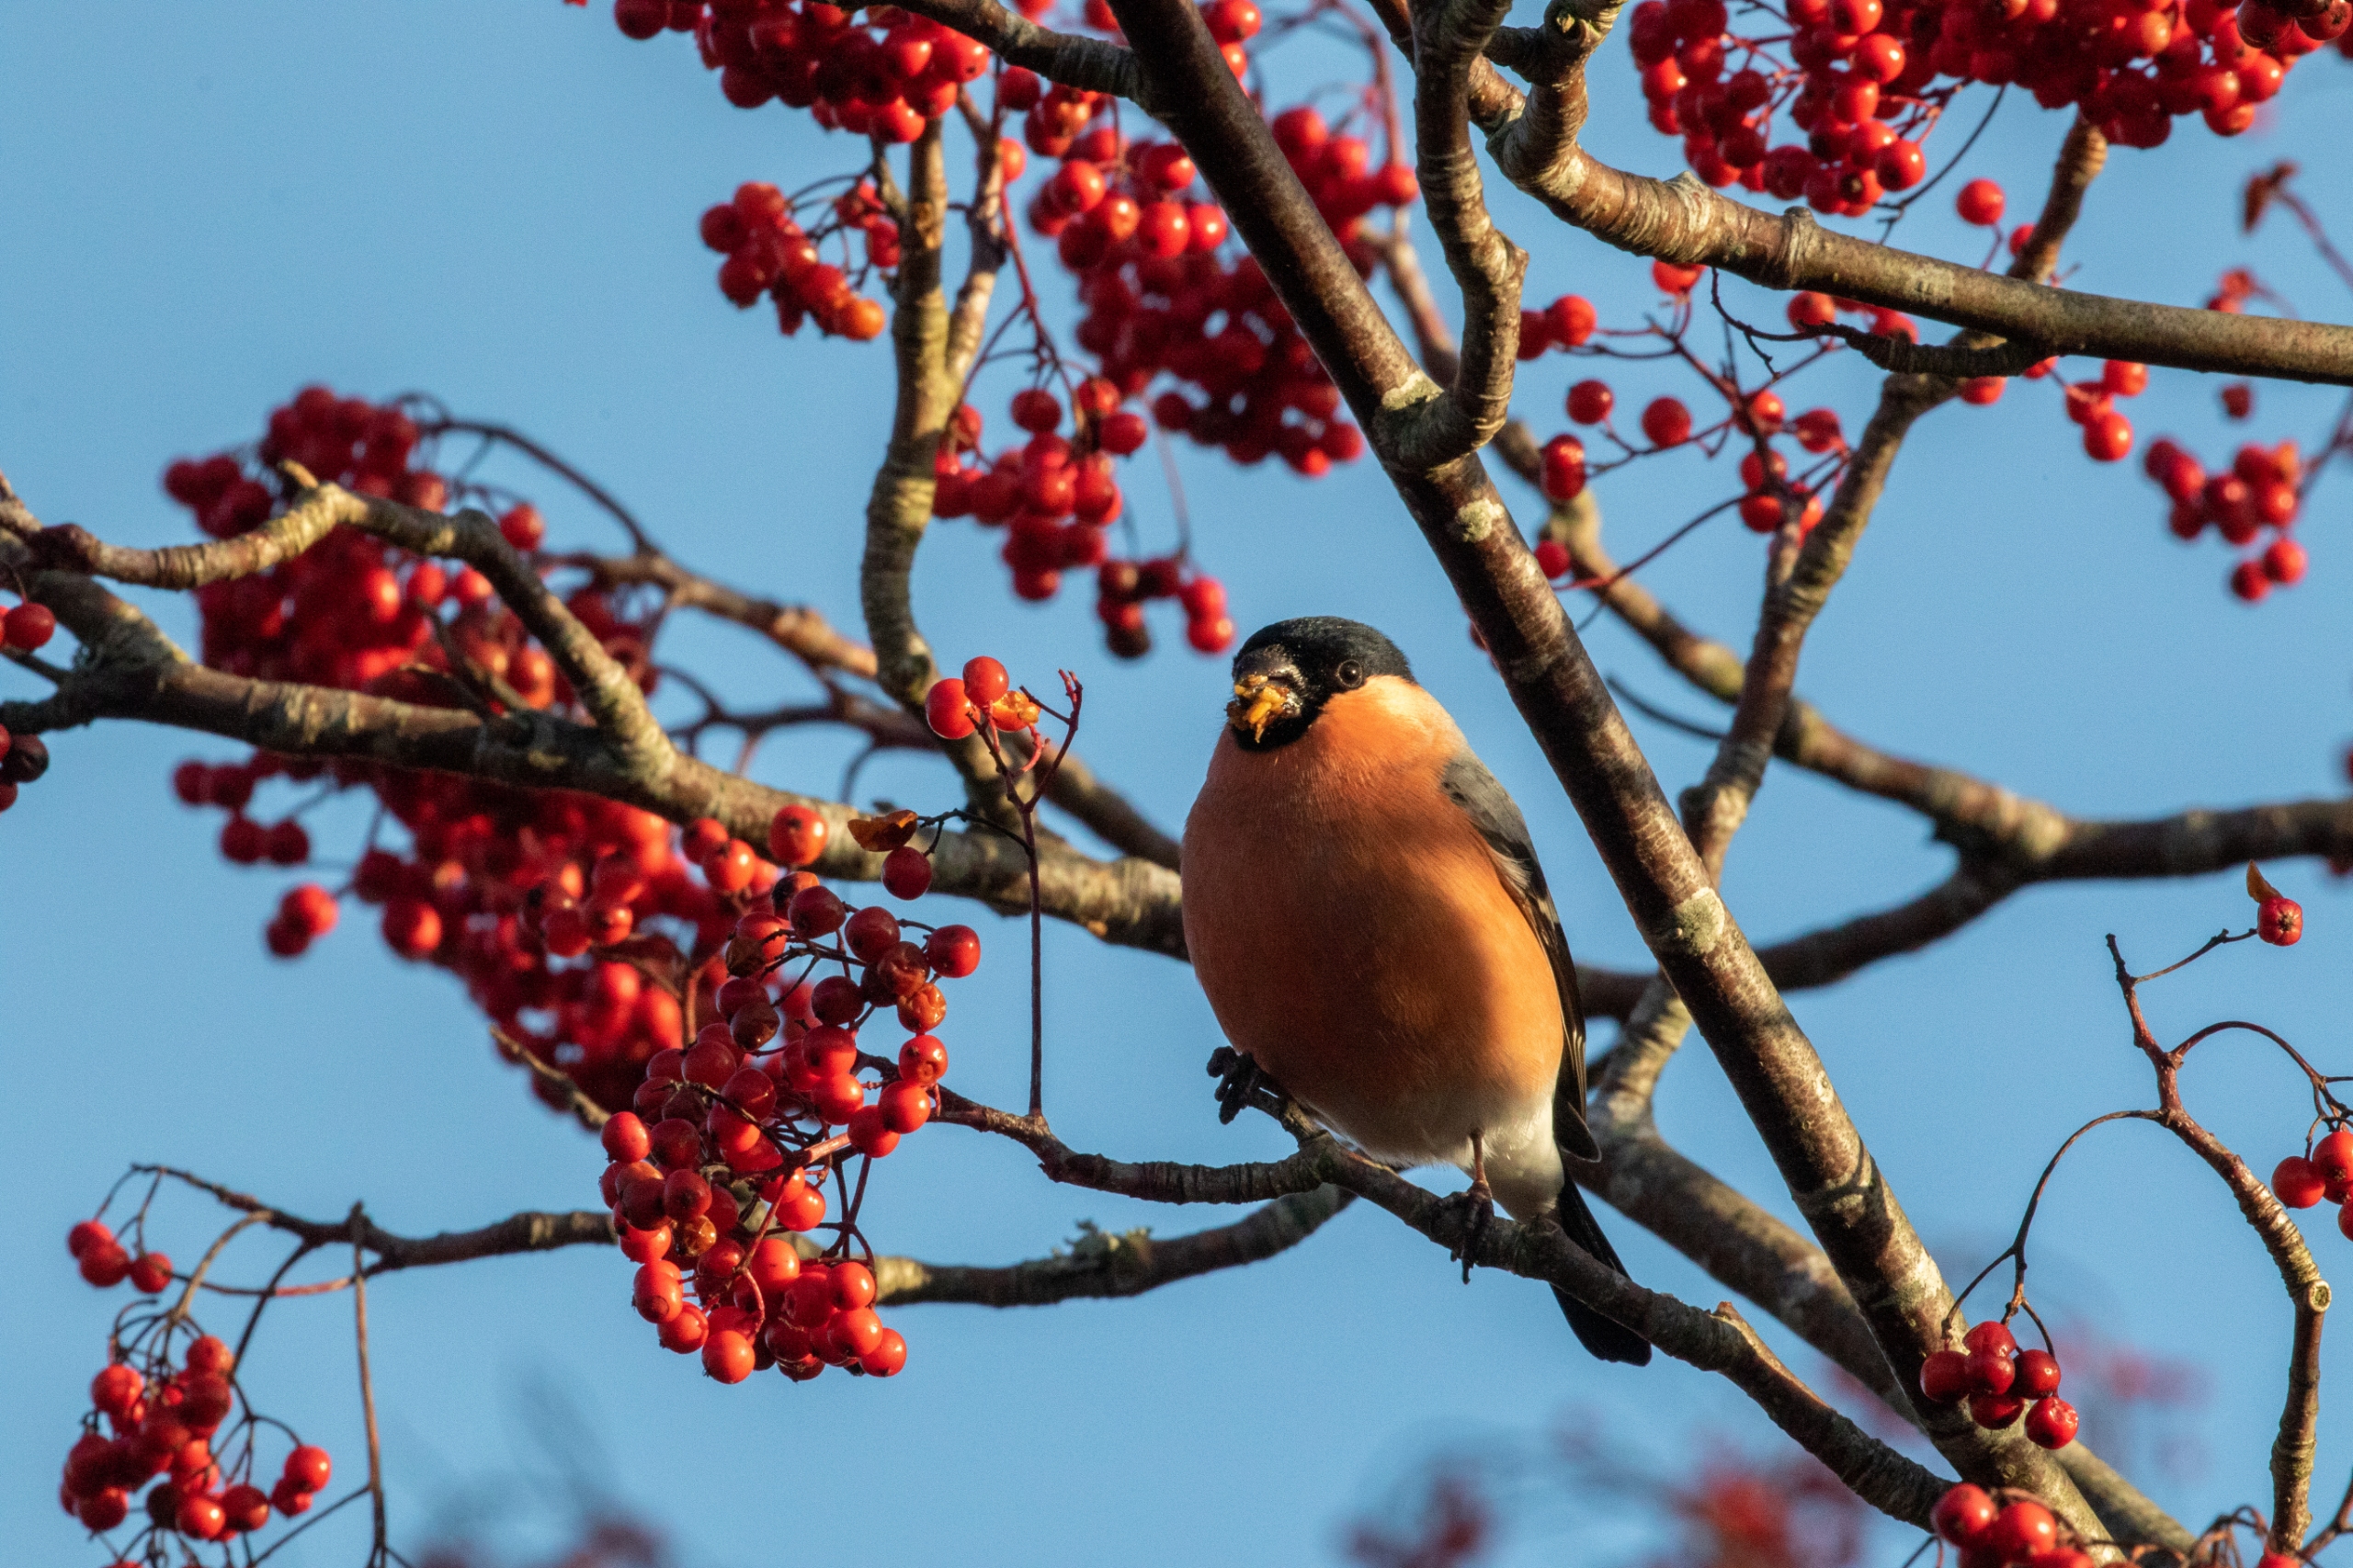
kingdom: Animalia
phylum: Chordata
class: Aves
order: Passeriformes
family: Fringillidae
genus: Pyrrhula
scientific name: Pyrrhula pyrrhula
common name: Dompap
